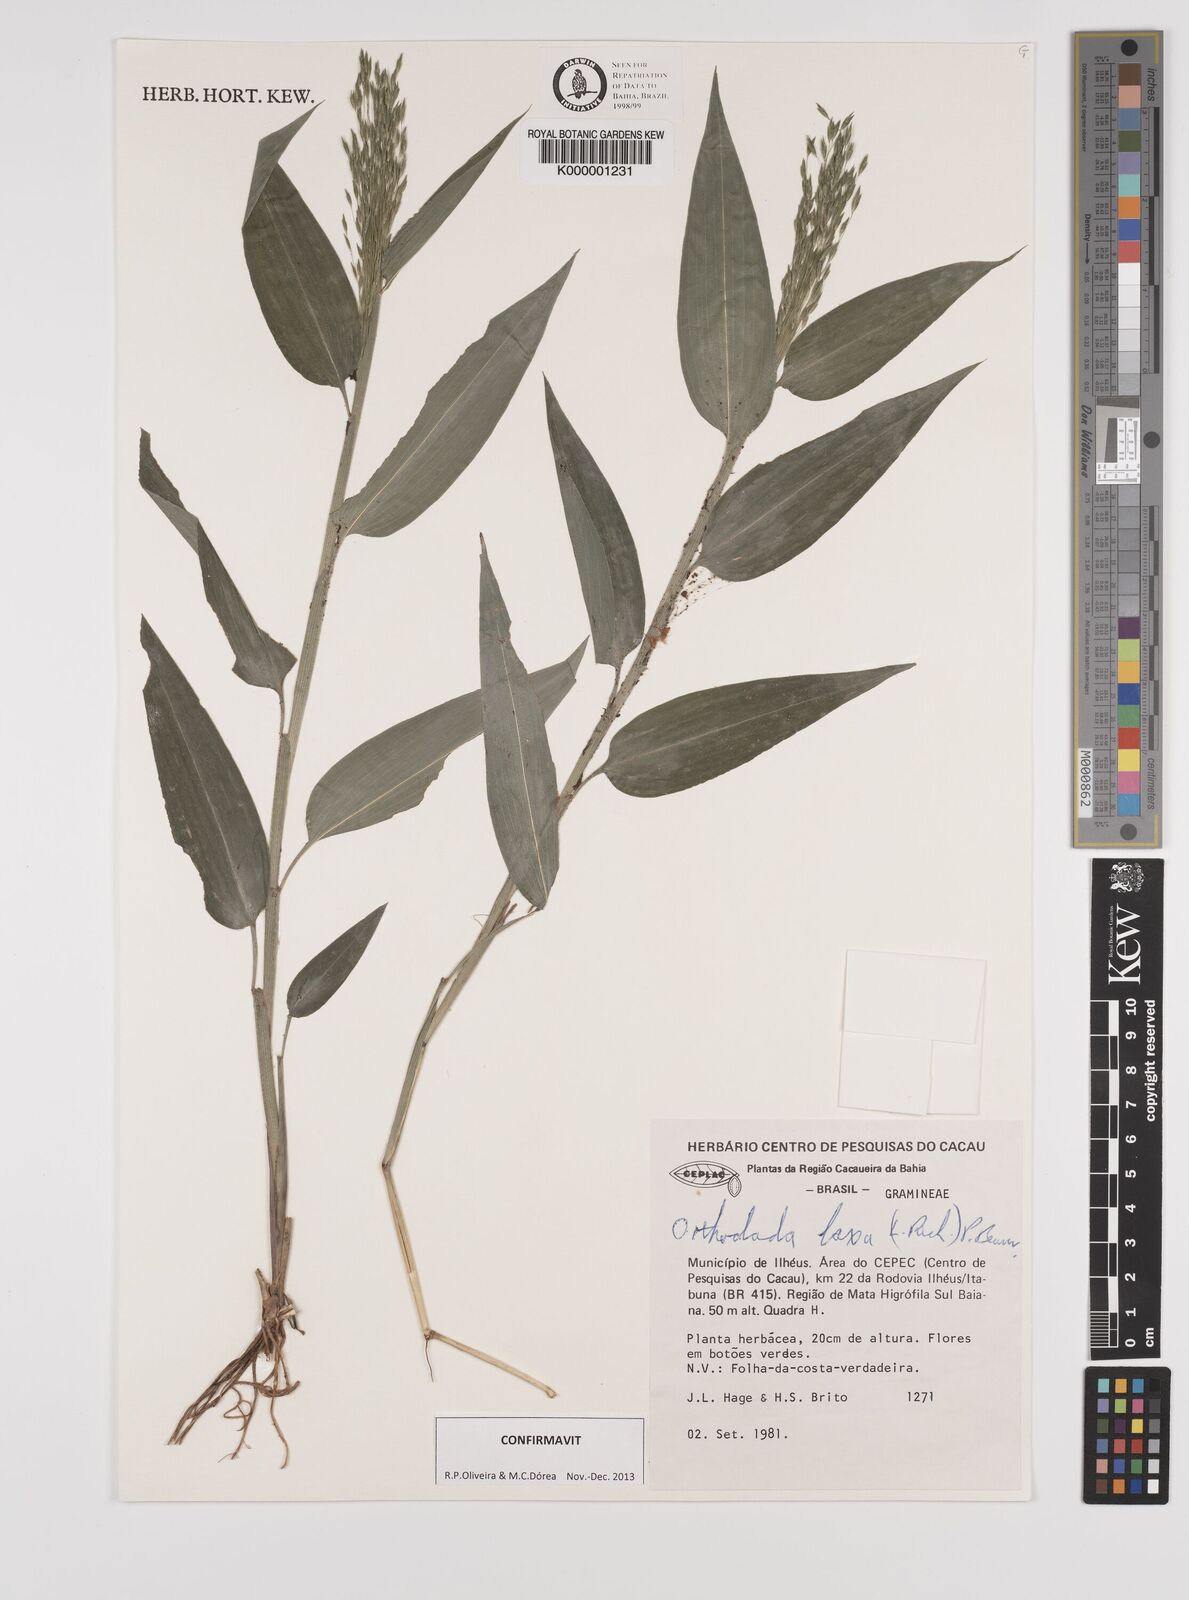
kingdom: Plantae
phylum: Tracheophyta
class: Liliopsida
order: Poales
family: Poaceae
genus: Orthoclada
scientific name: Orthoclada laxa
